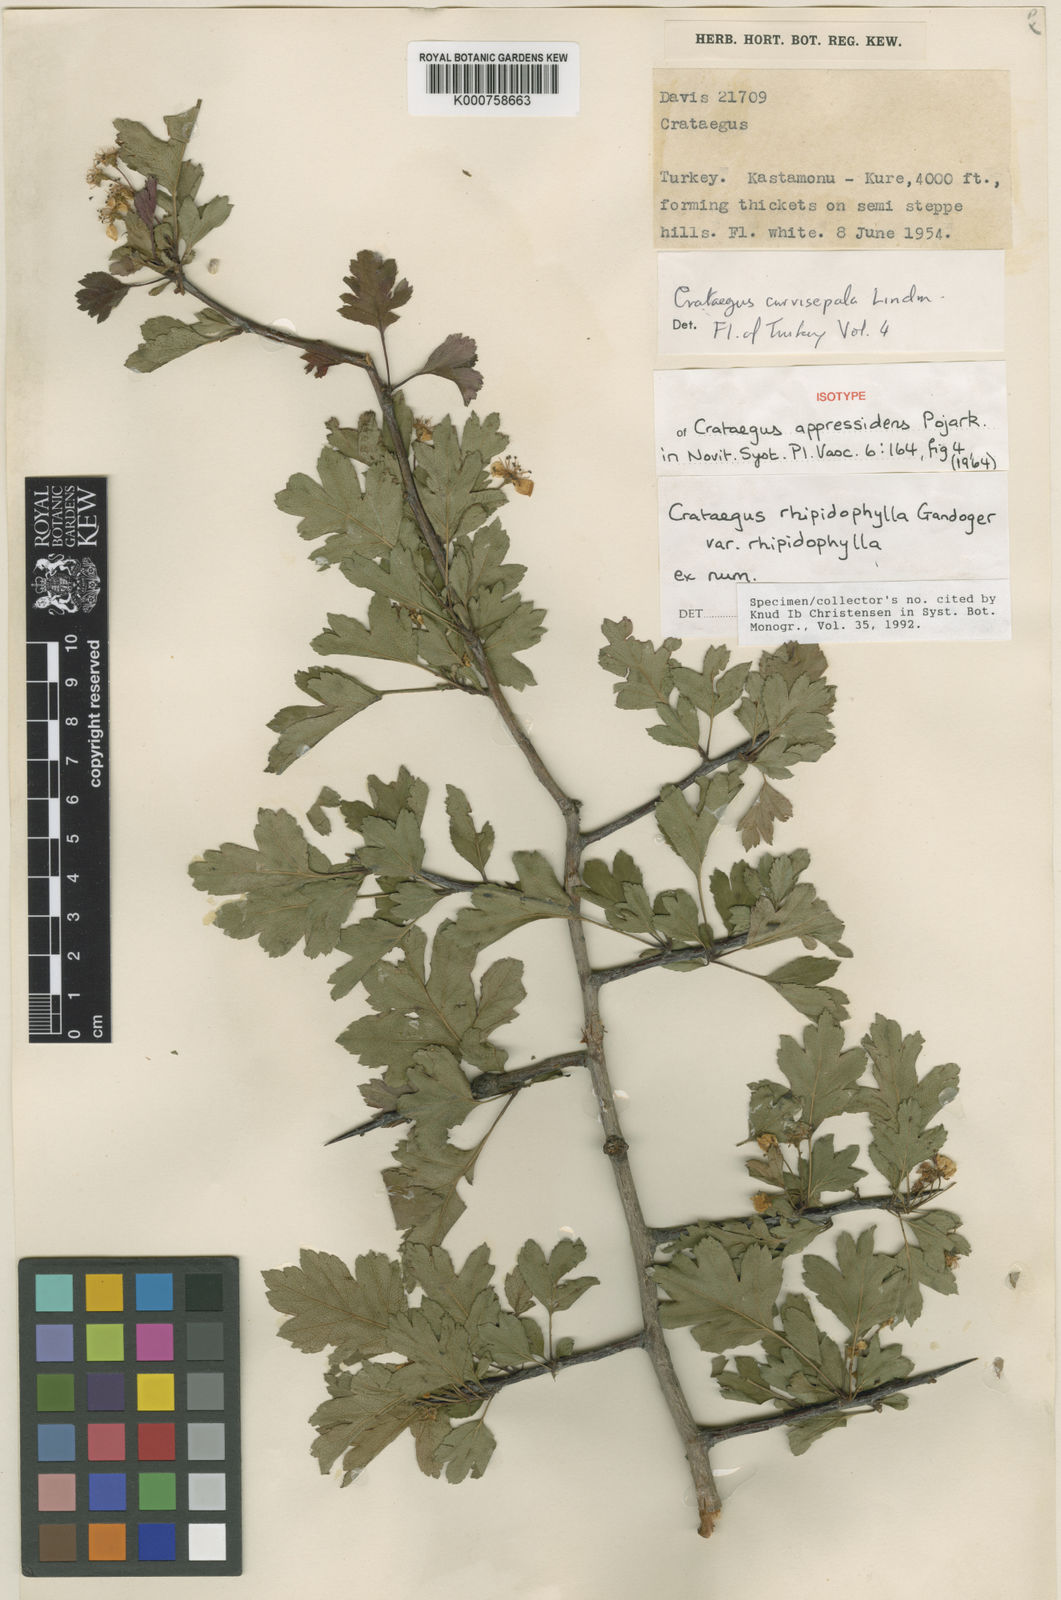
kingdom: Plantae
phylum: Tracheophyta
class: Magnoliopsida
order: Rosales
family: Rosaceae
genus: Crataegus
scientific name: Crataegus rhipidophylla
